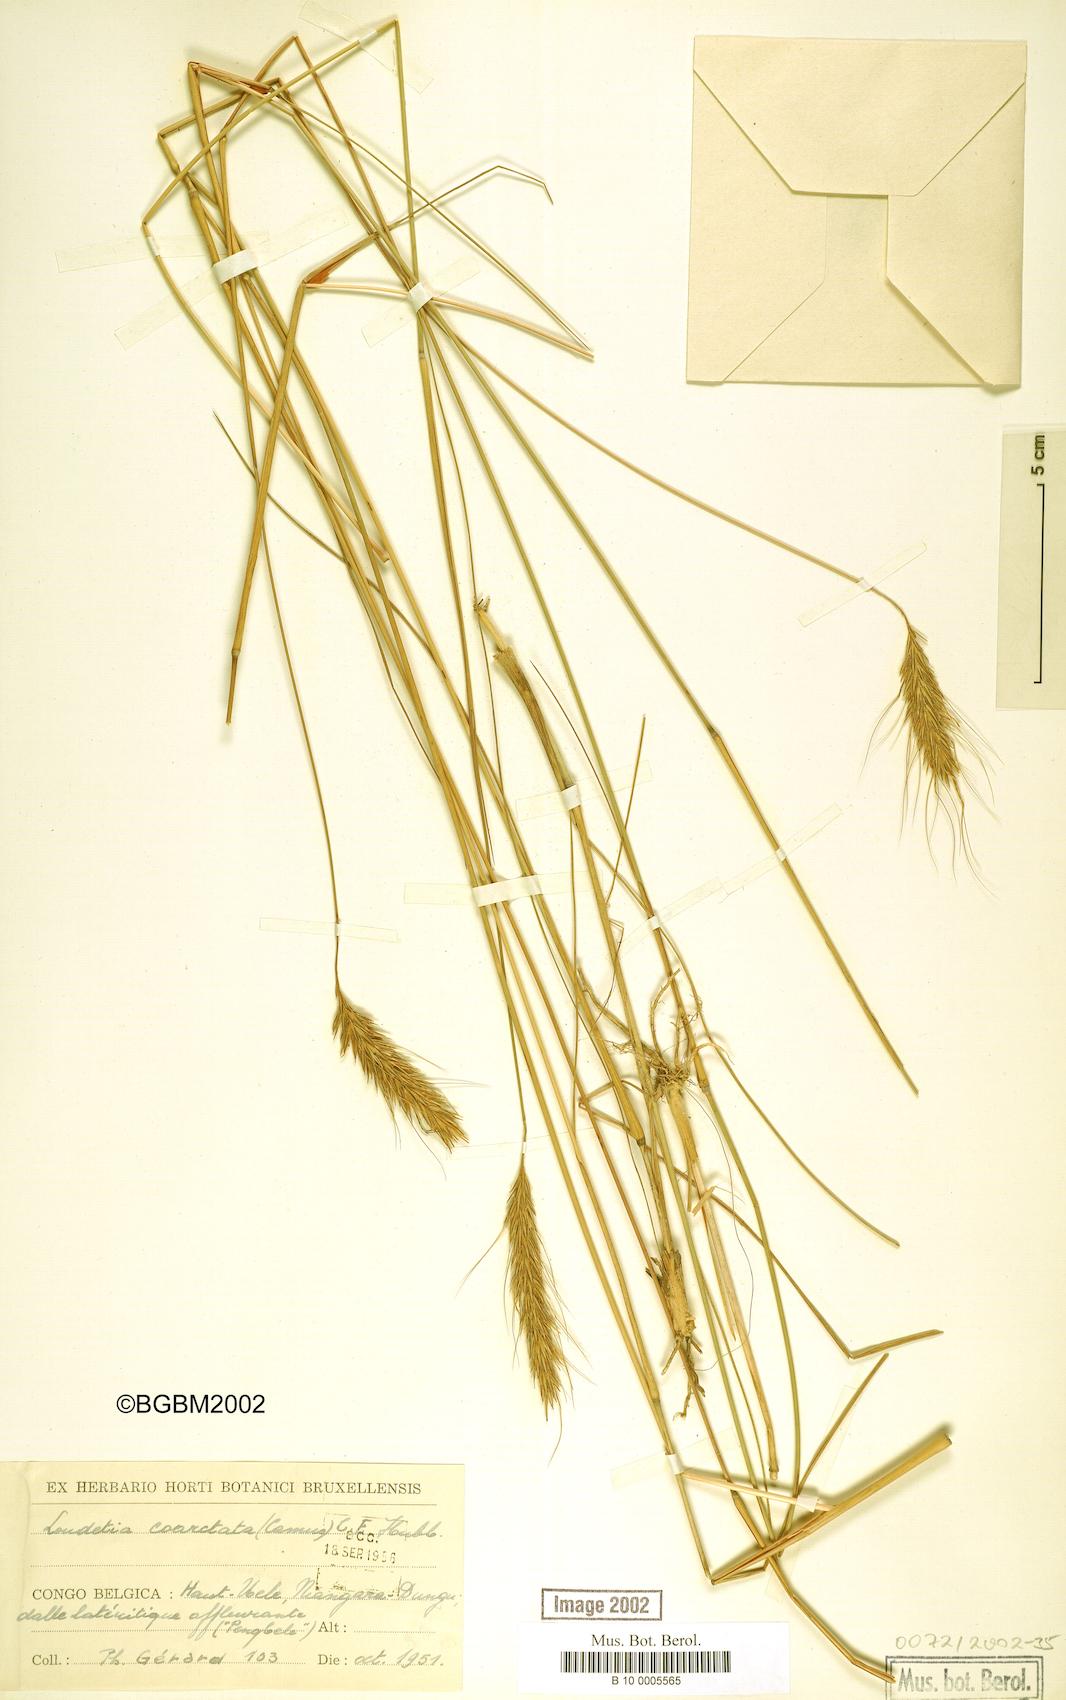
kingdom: Plantae
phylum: Tracheophyta
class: Liliopsida
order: Poales
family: Poaceae
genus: Loudetia
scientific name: Loudetia coarctata
